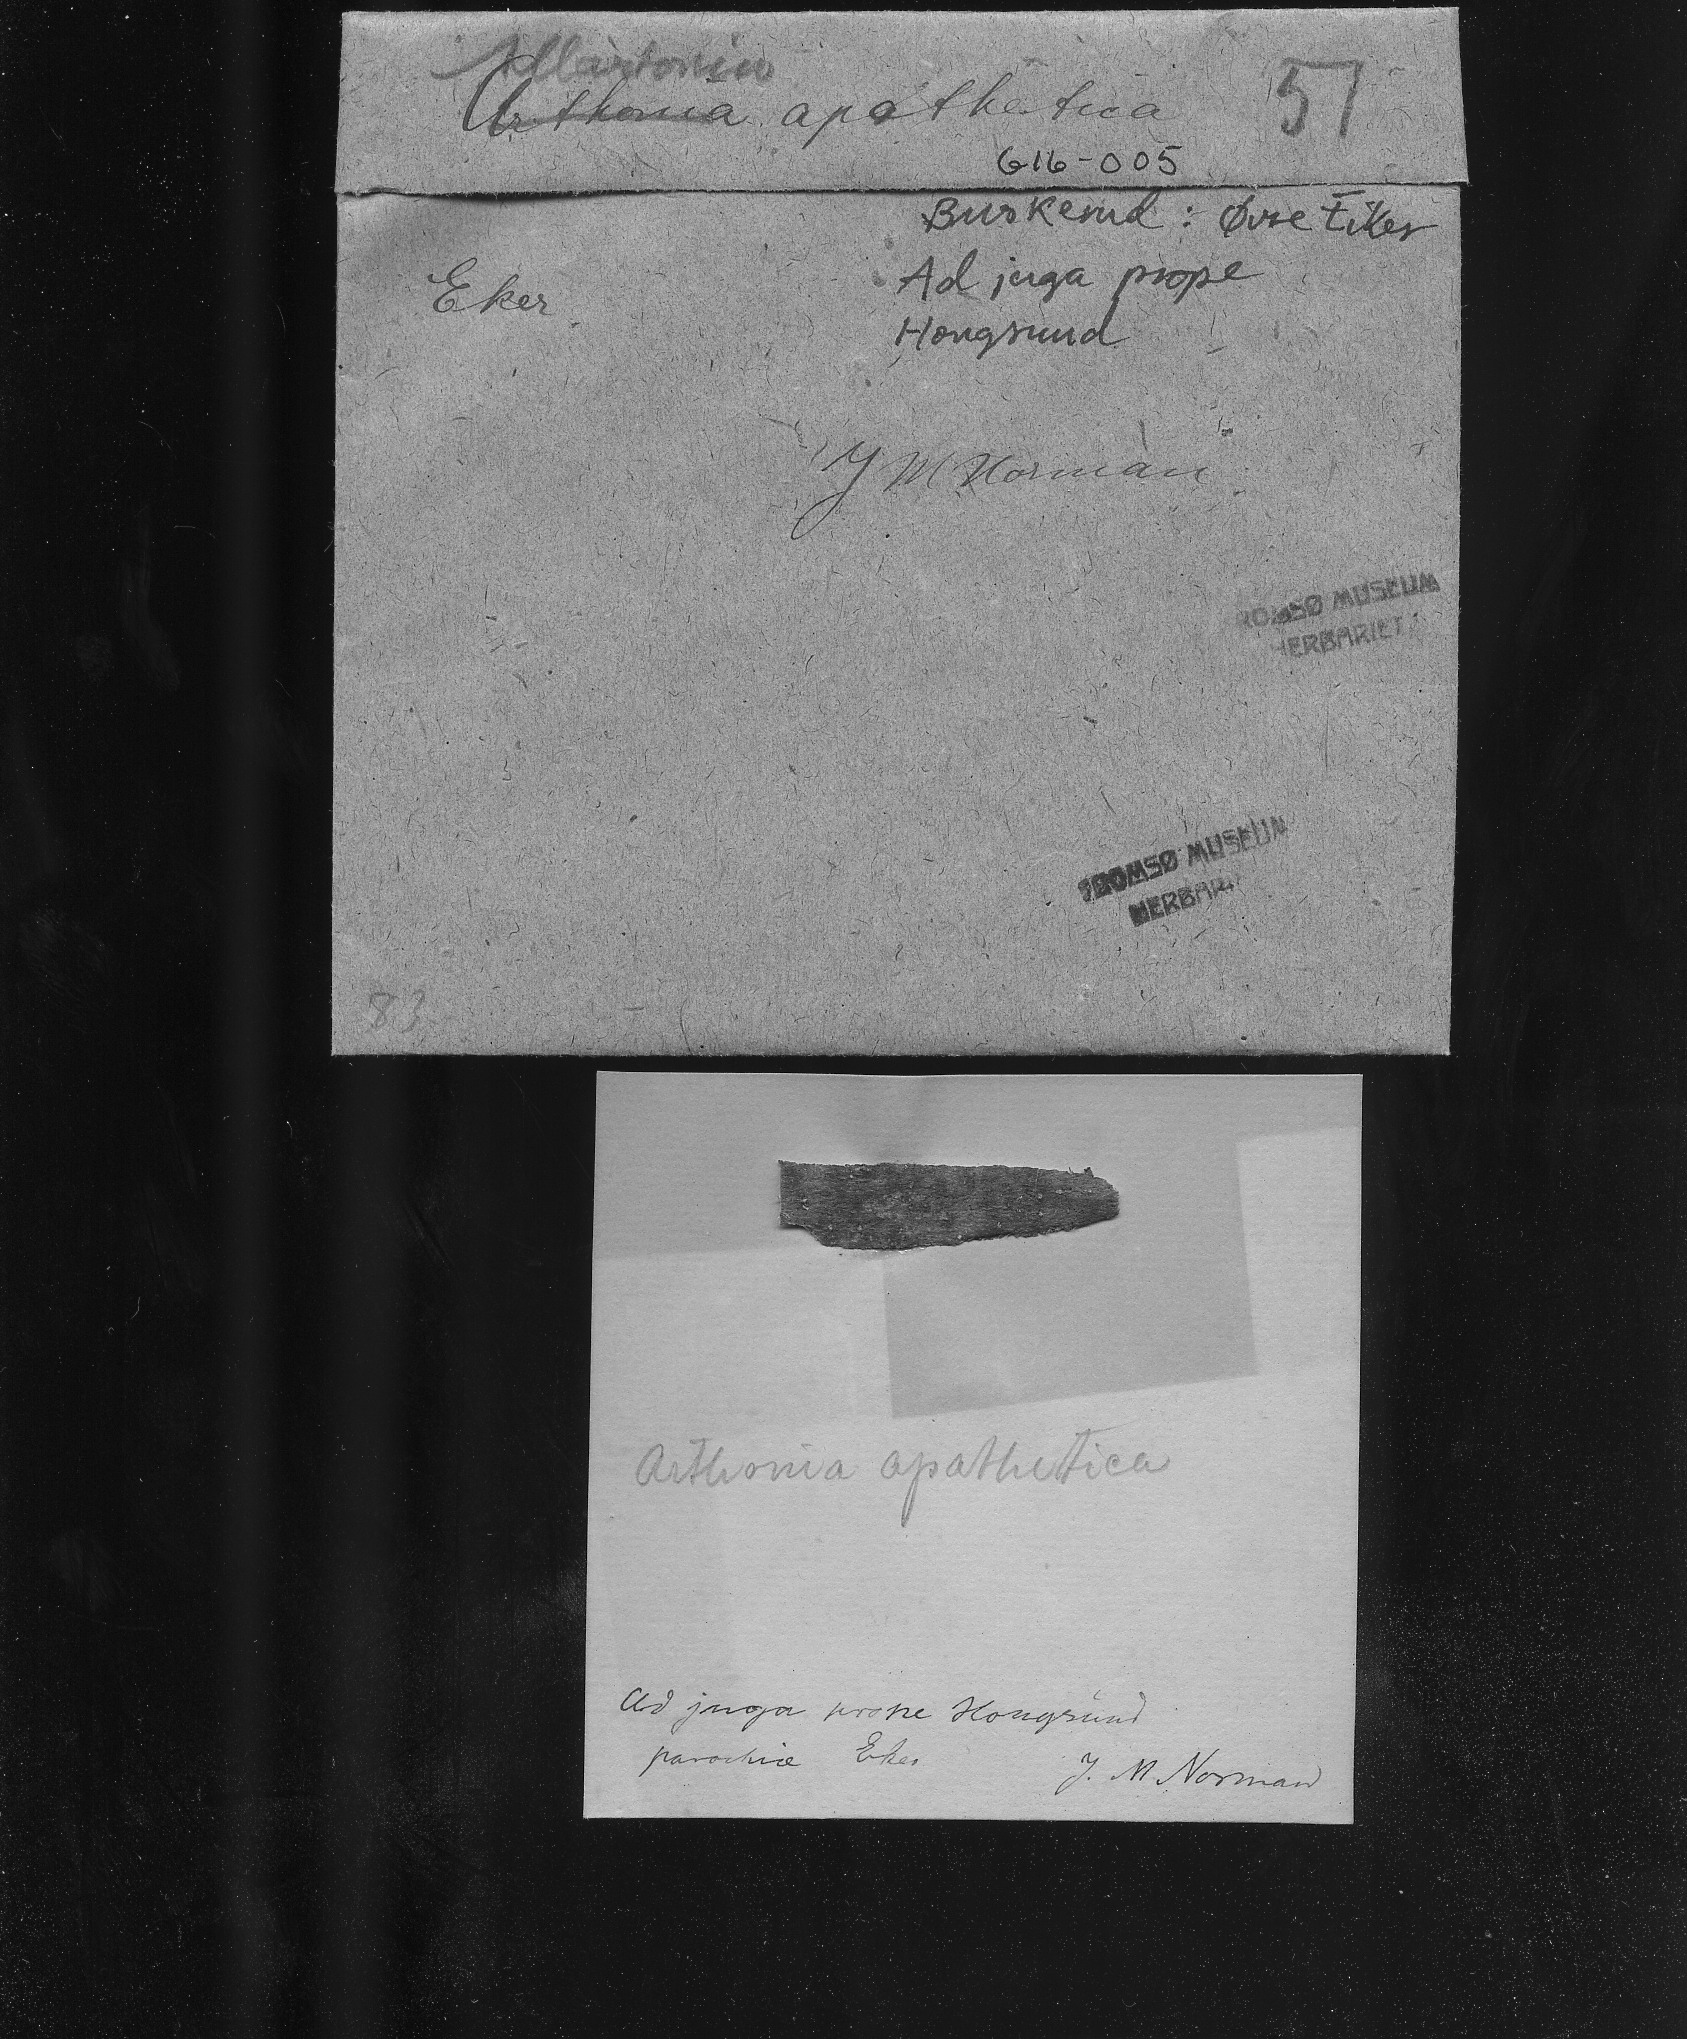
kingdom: Fungi
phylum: Ascomycota
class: Arthoniomycetes
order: Arthoniales
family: Arthoniaceae
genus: Arthonia
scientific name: Arthonia apatetica
